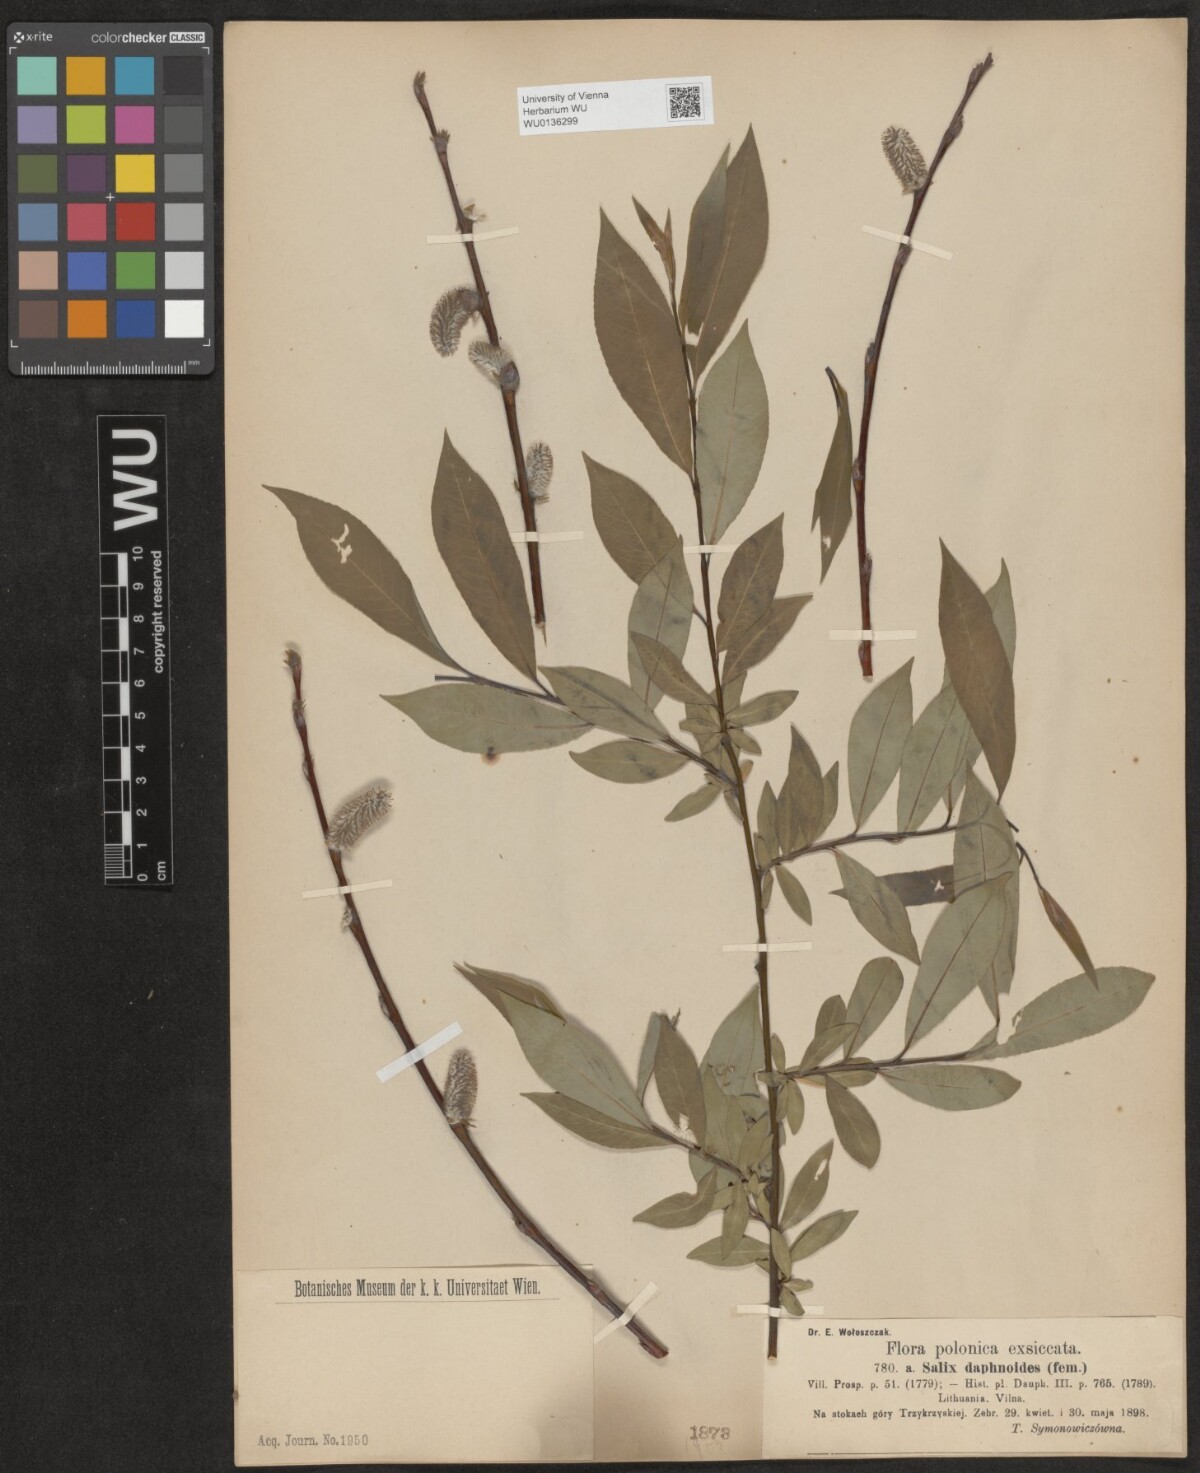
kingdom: Plantae
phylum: Tracheophyta
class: Magnoliopsida
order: Malpighiales
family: Salicaceae
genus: Salix
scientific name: Salix daphnoides
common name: European violet-willow
